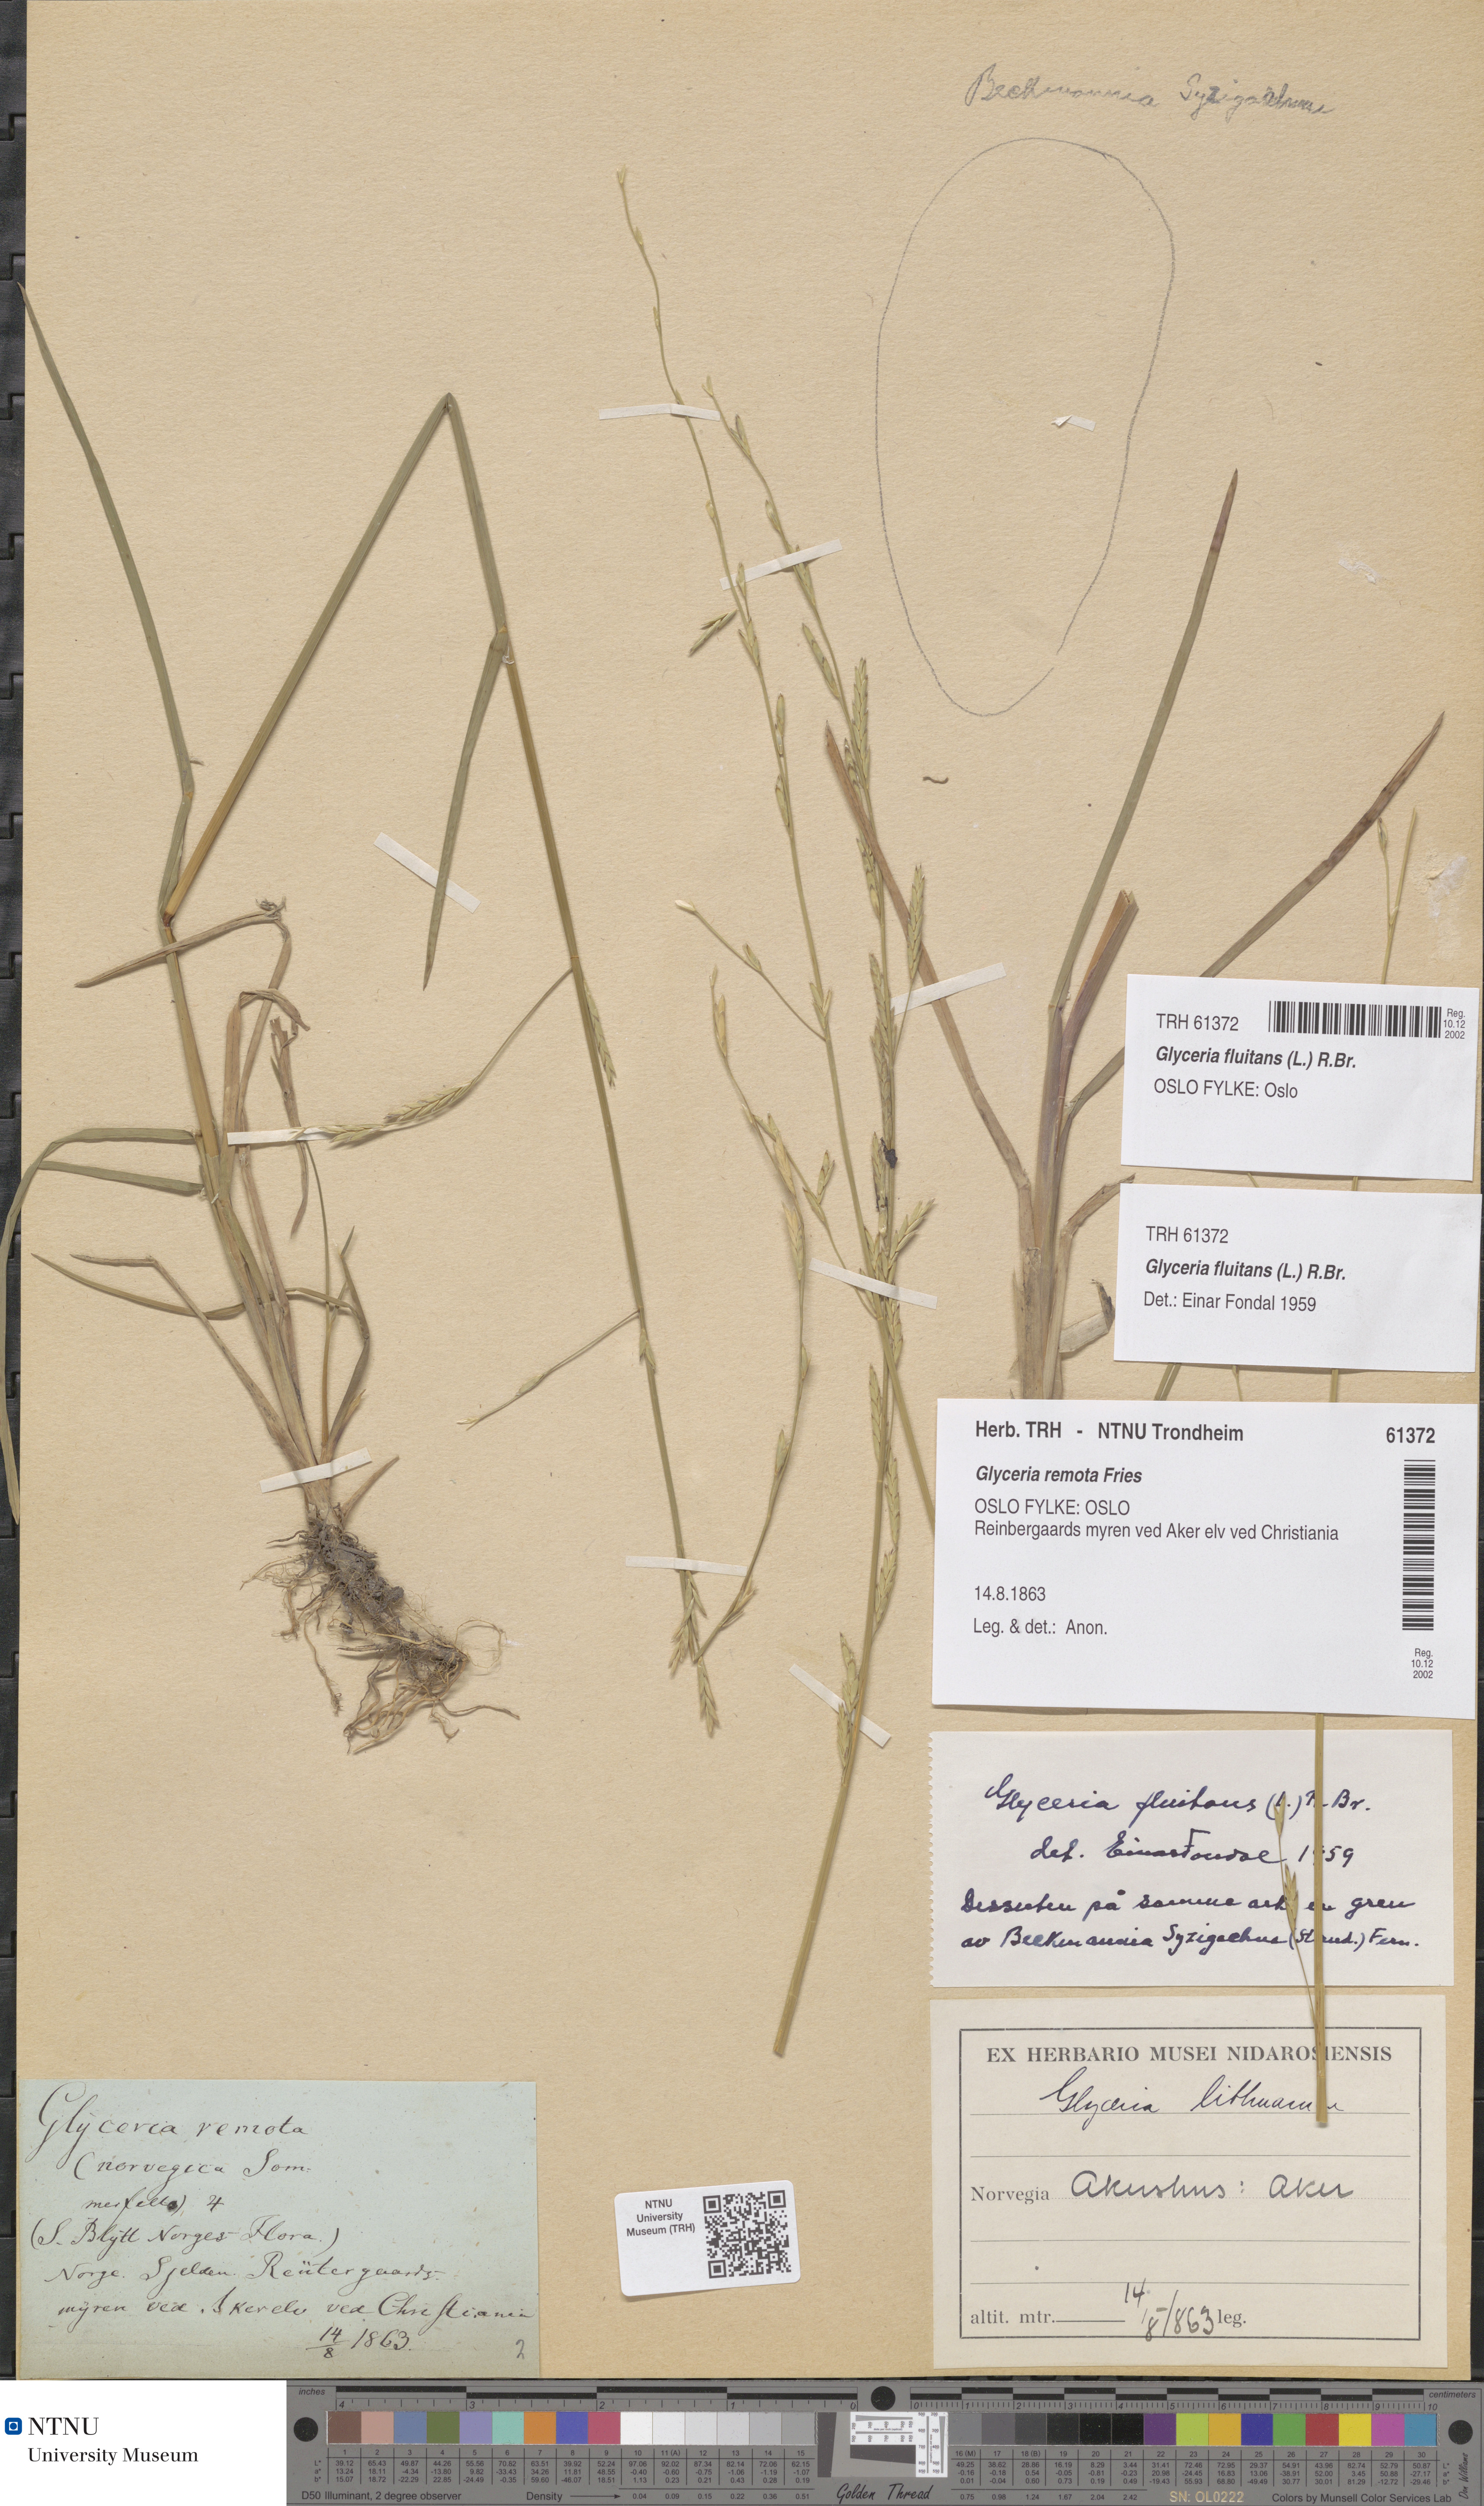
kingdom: Plantae
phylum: Tracheophyta
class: Liliopsida
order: Poales
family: Poaceae
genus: Glyceria
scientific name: Glyceria fluitans
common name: Floating sweet-grass
